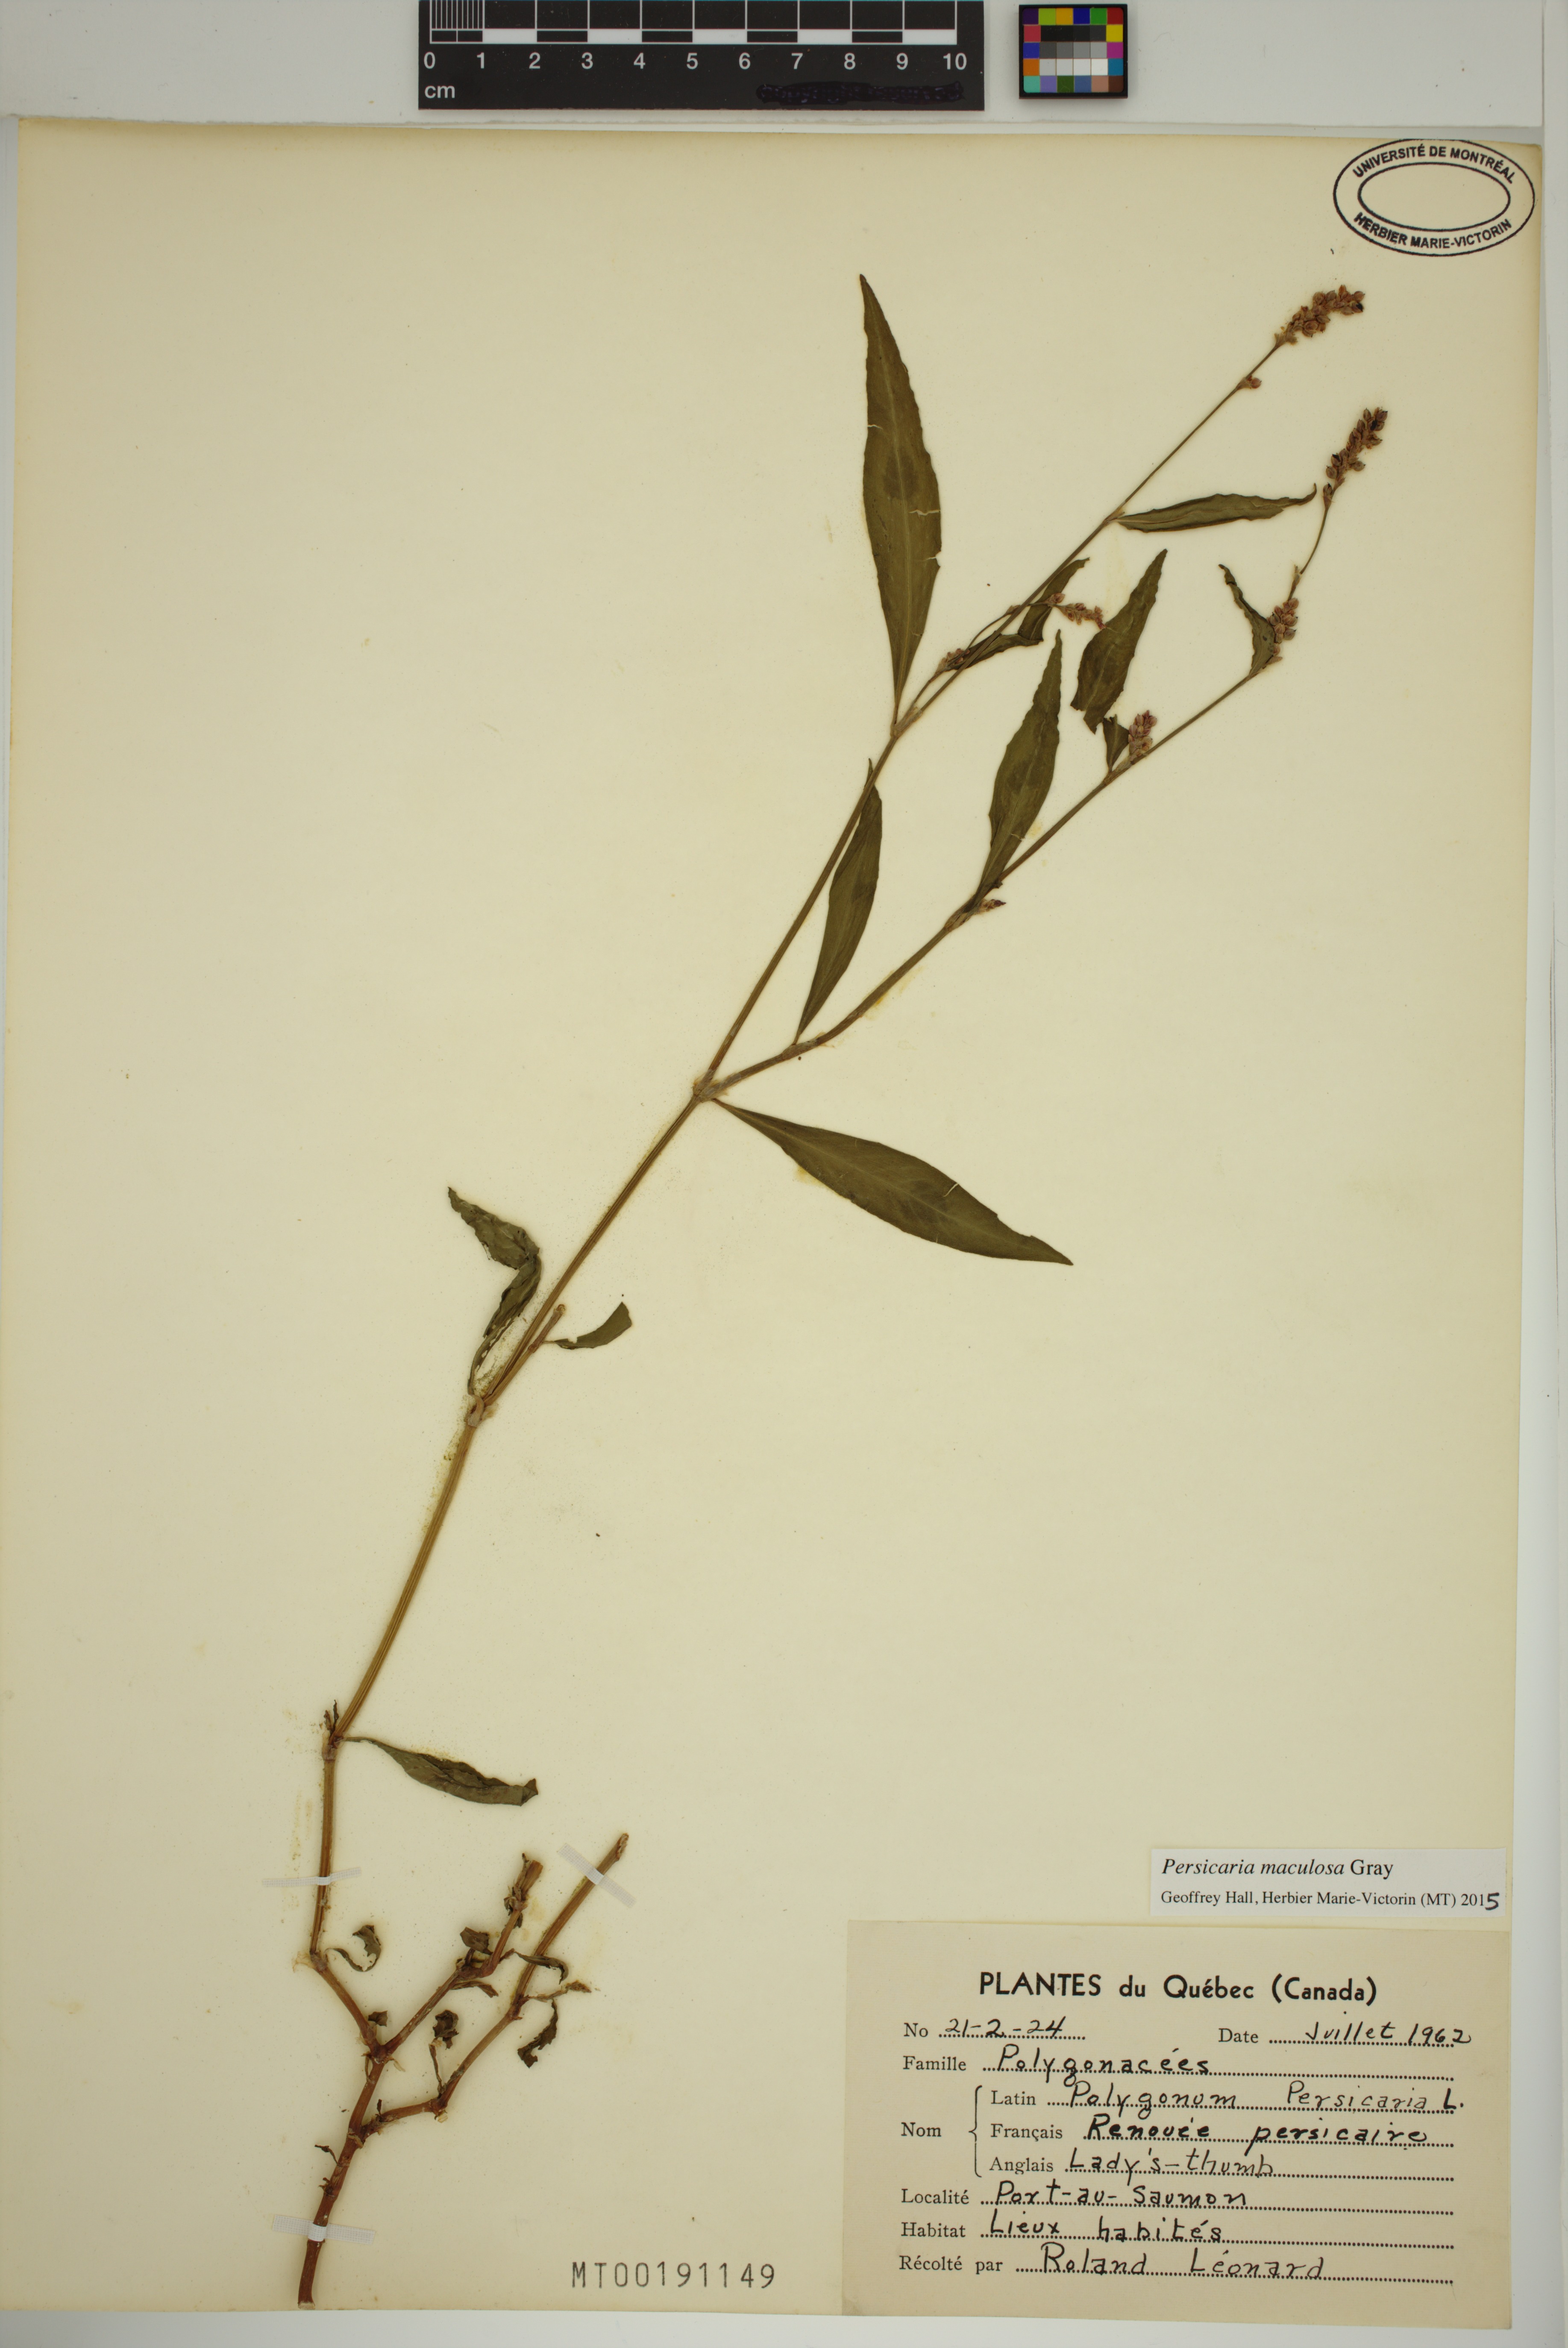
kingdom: Plantae
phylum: Tracheophyta
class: Magnoliopsida
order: Caryophyllales
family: Polygonaceae
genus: Persicaria
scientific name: Persicaria maculosa
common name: Redshank
